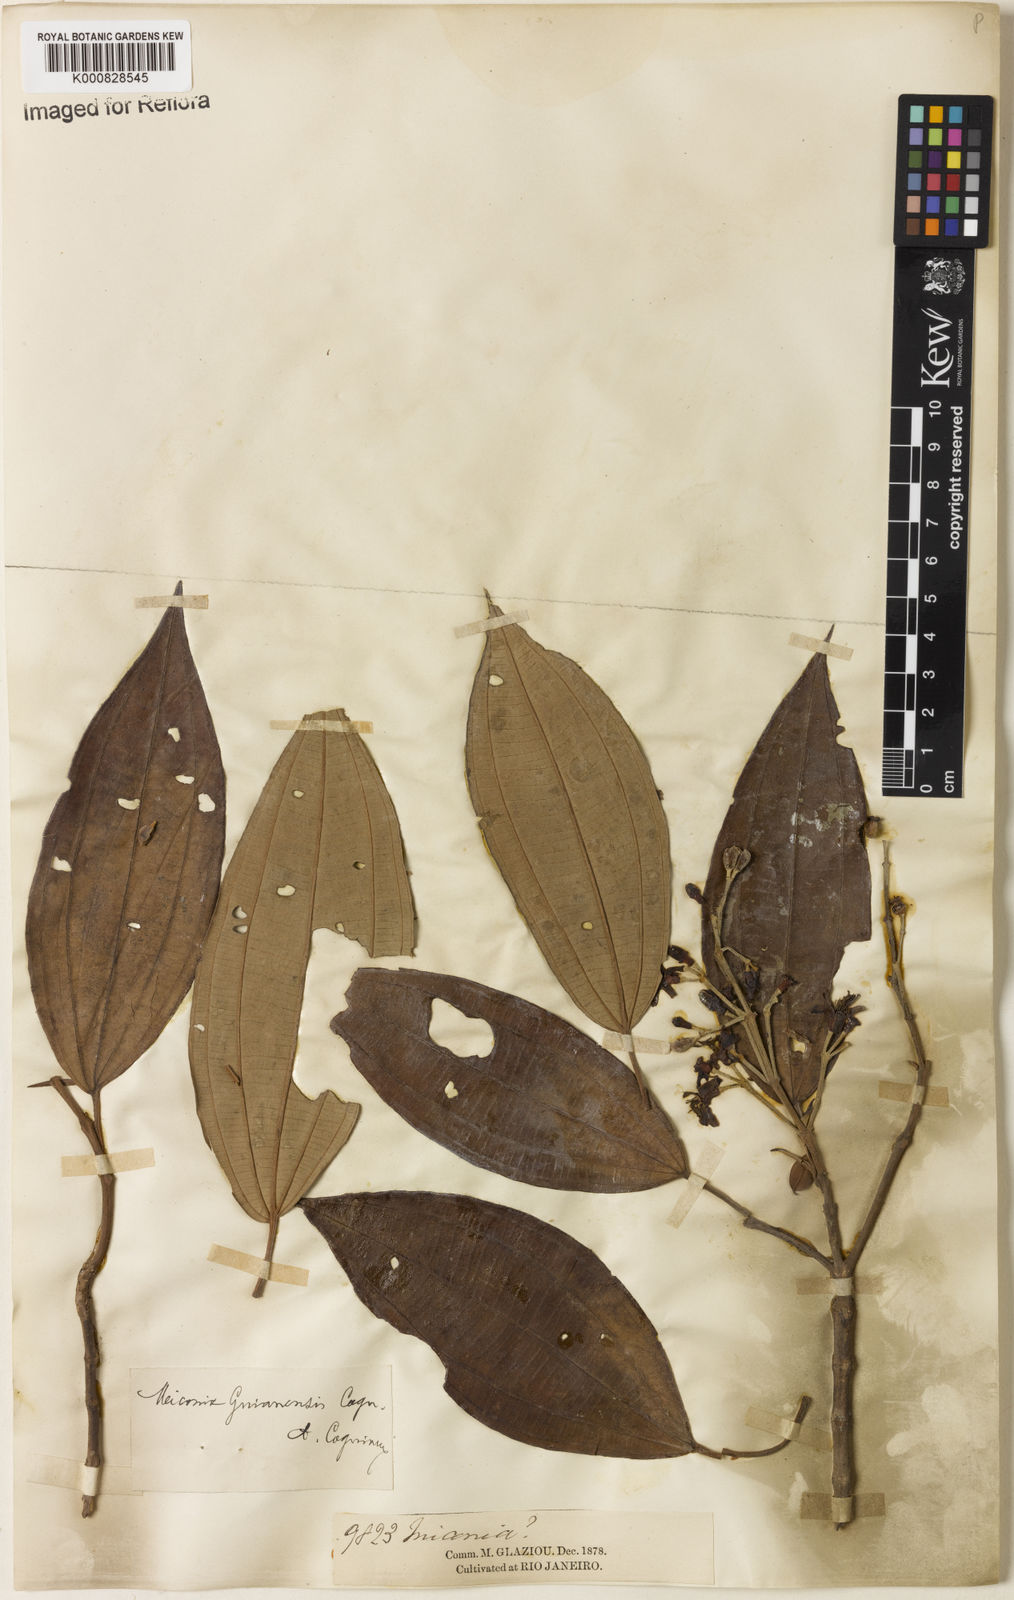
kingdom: Plantae
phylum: Tracheophyta
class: Magnoliopsida
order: Myrtales
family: Melastomataceae
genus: Miconia
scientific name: Miconia mirabilis
